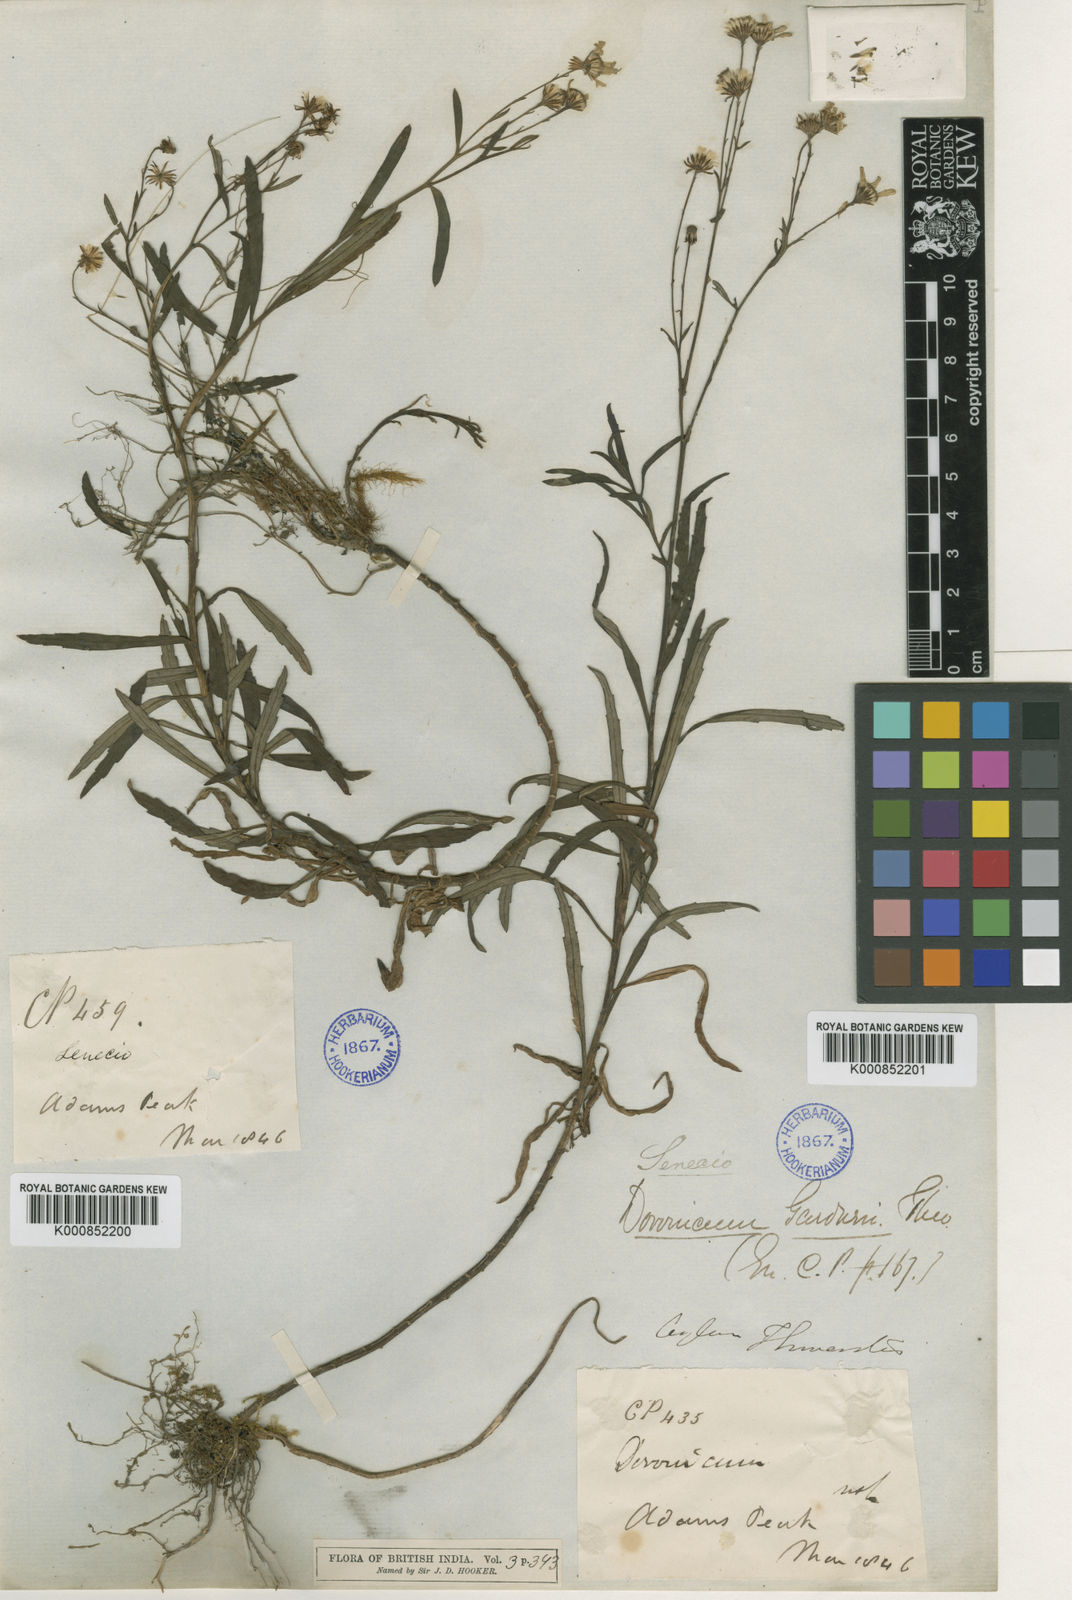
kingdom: Plantae
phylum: Tracheophyta
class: Magnoliopsida
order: Asterales
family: Asteraceae
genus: Senecio
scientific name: Senecio gardneri
